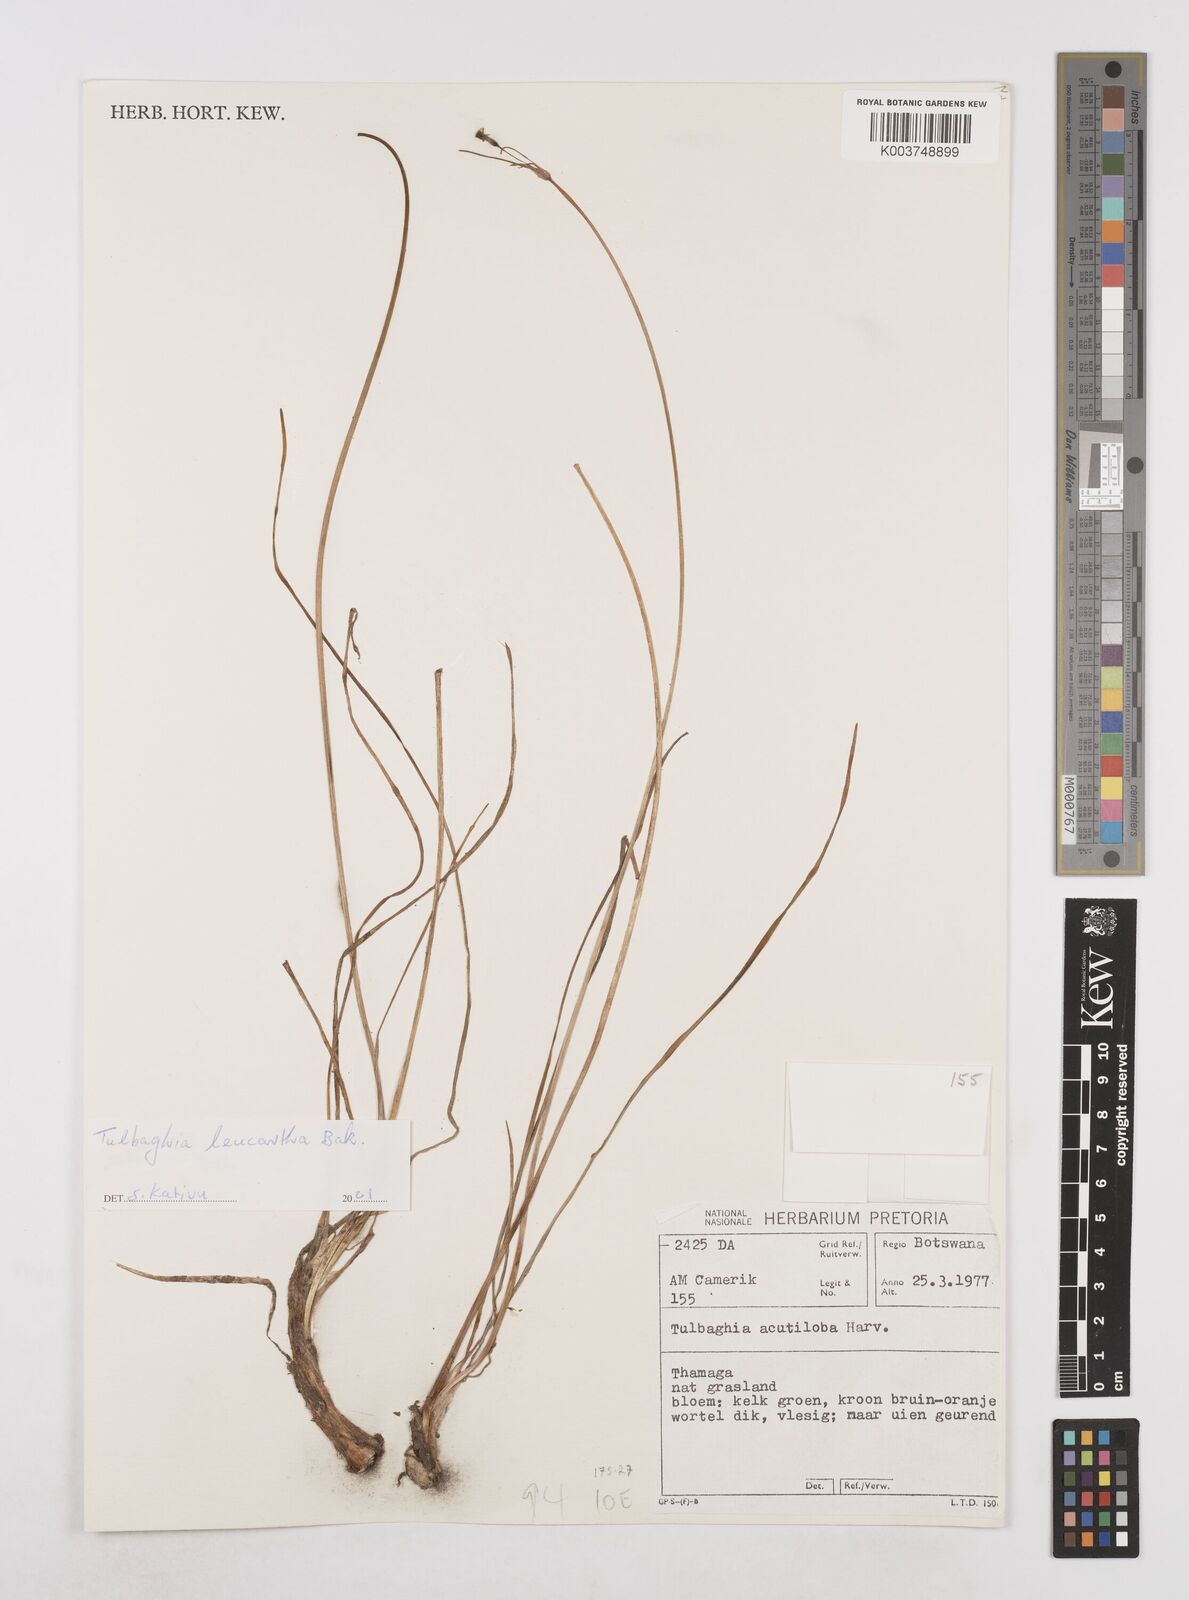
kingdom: Plantae
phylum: Tracheophyta
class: Liliopsida
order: Asparagales
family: Amaryllidaceae
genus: Tulbaghia
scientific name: Tulbaghia leucantha
